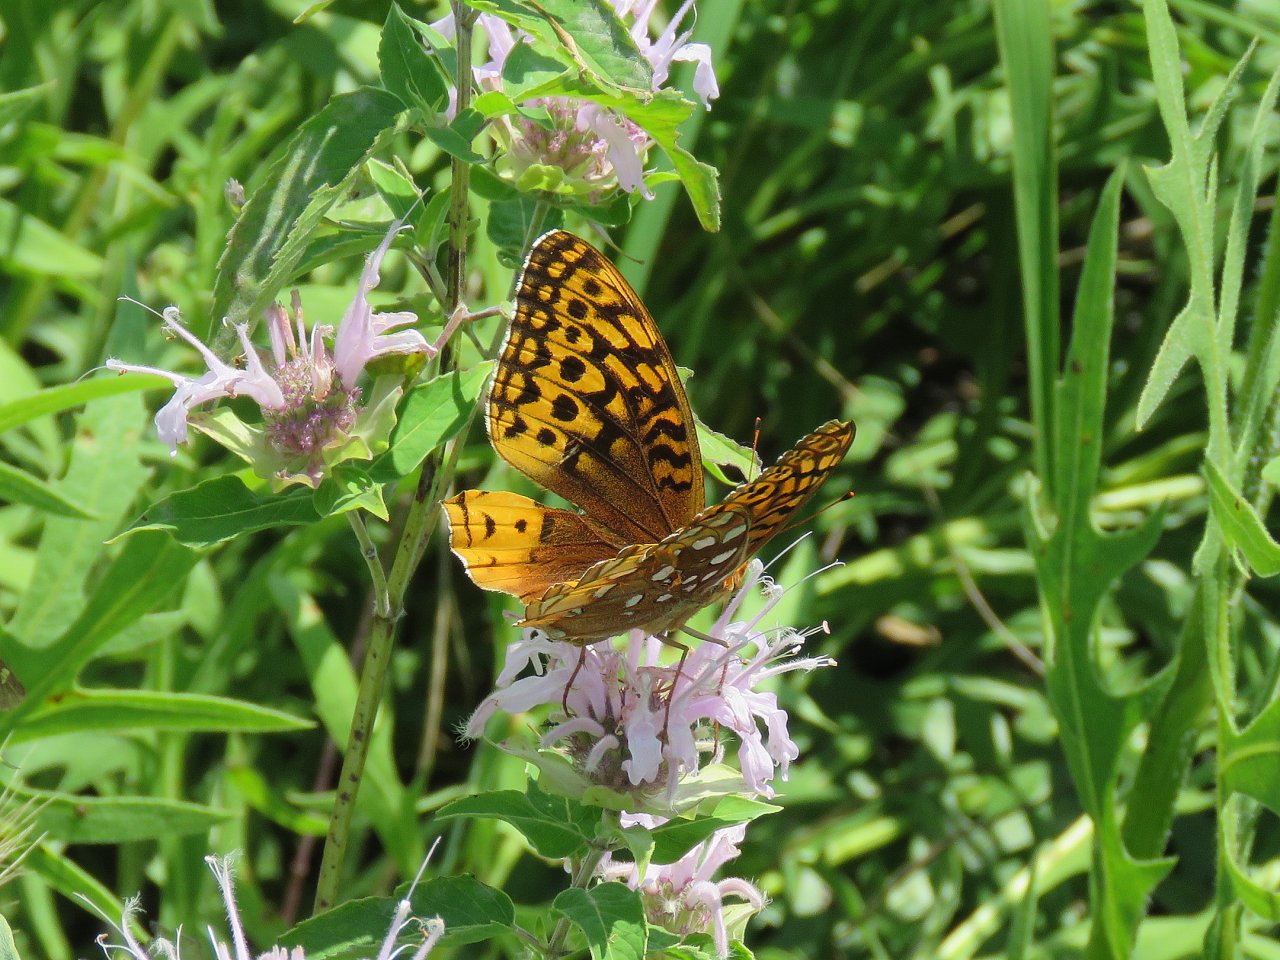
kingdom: Animalia
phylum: Arthropoda
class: Insecta
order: Lepidoptera
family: Nymphalidae
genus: Speyeria
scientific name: Speyeria cybele
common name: Great Spangled Fritillary
